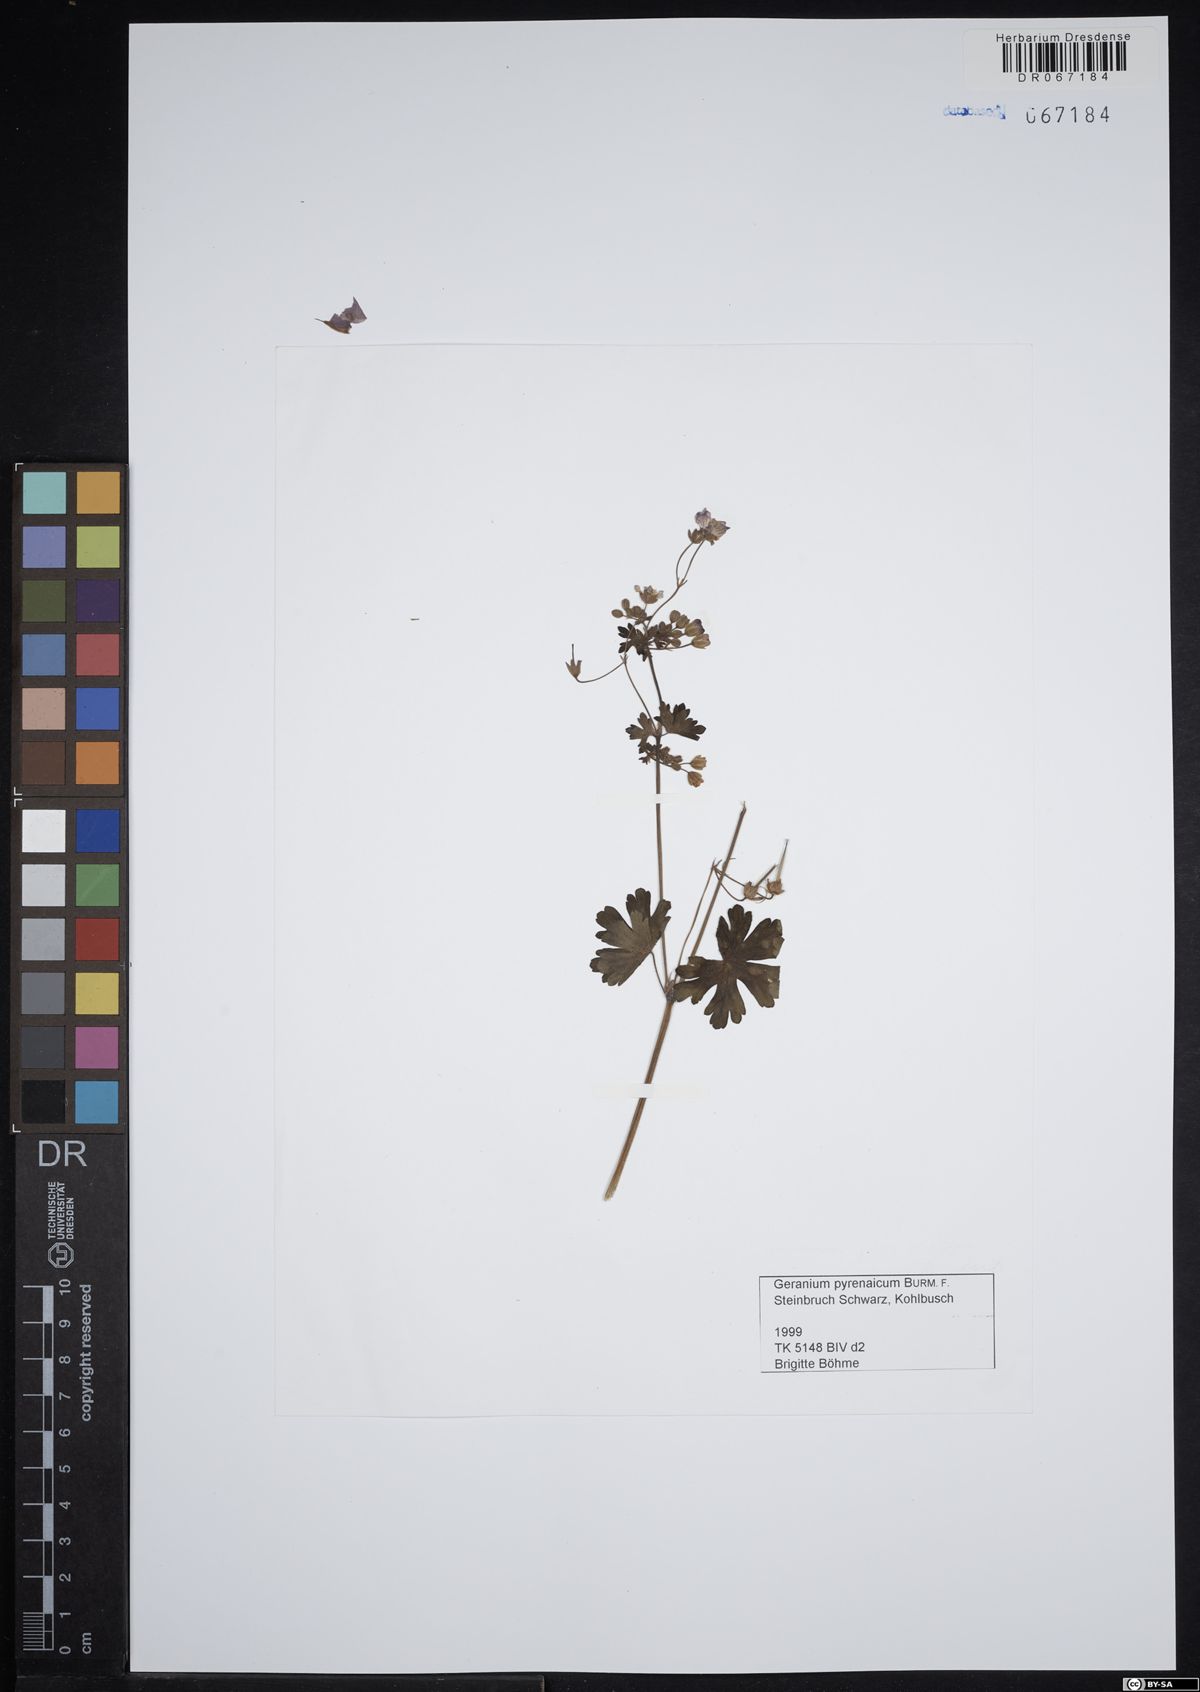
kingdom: Plantae
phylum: Tracheophyta
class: Magnoliopsida
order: Geraniales
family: Geraniaceae
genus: Geranium
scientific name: Geranium pyrenaicum
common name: Hedgerow crane's-bill
